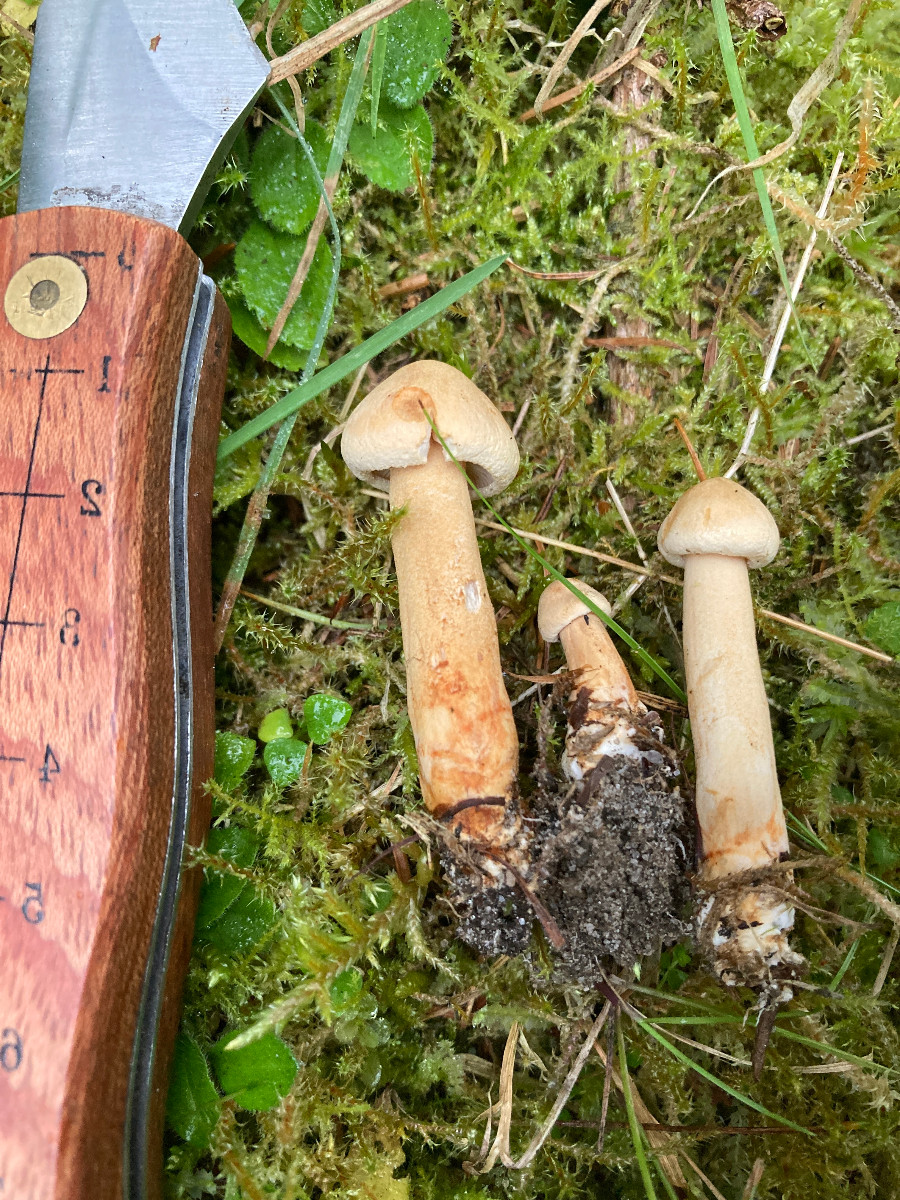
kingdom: Fungi
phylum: Basidiomycota
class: Agaricomycetes
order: Agaricales
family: Tricholomataceae
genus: Tricholoma
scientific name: Tricholoma psammopus
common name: grynstokket ridderhat
